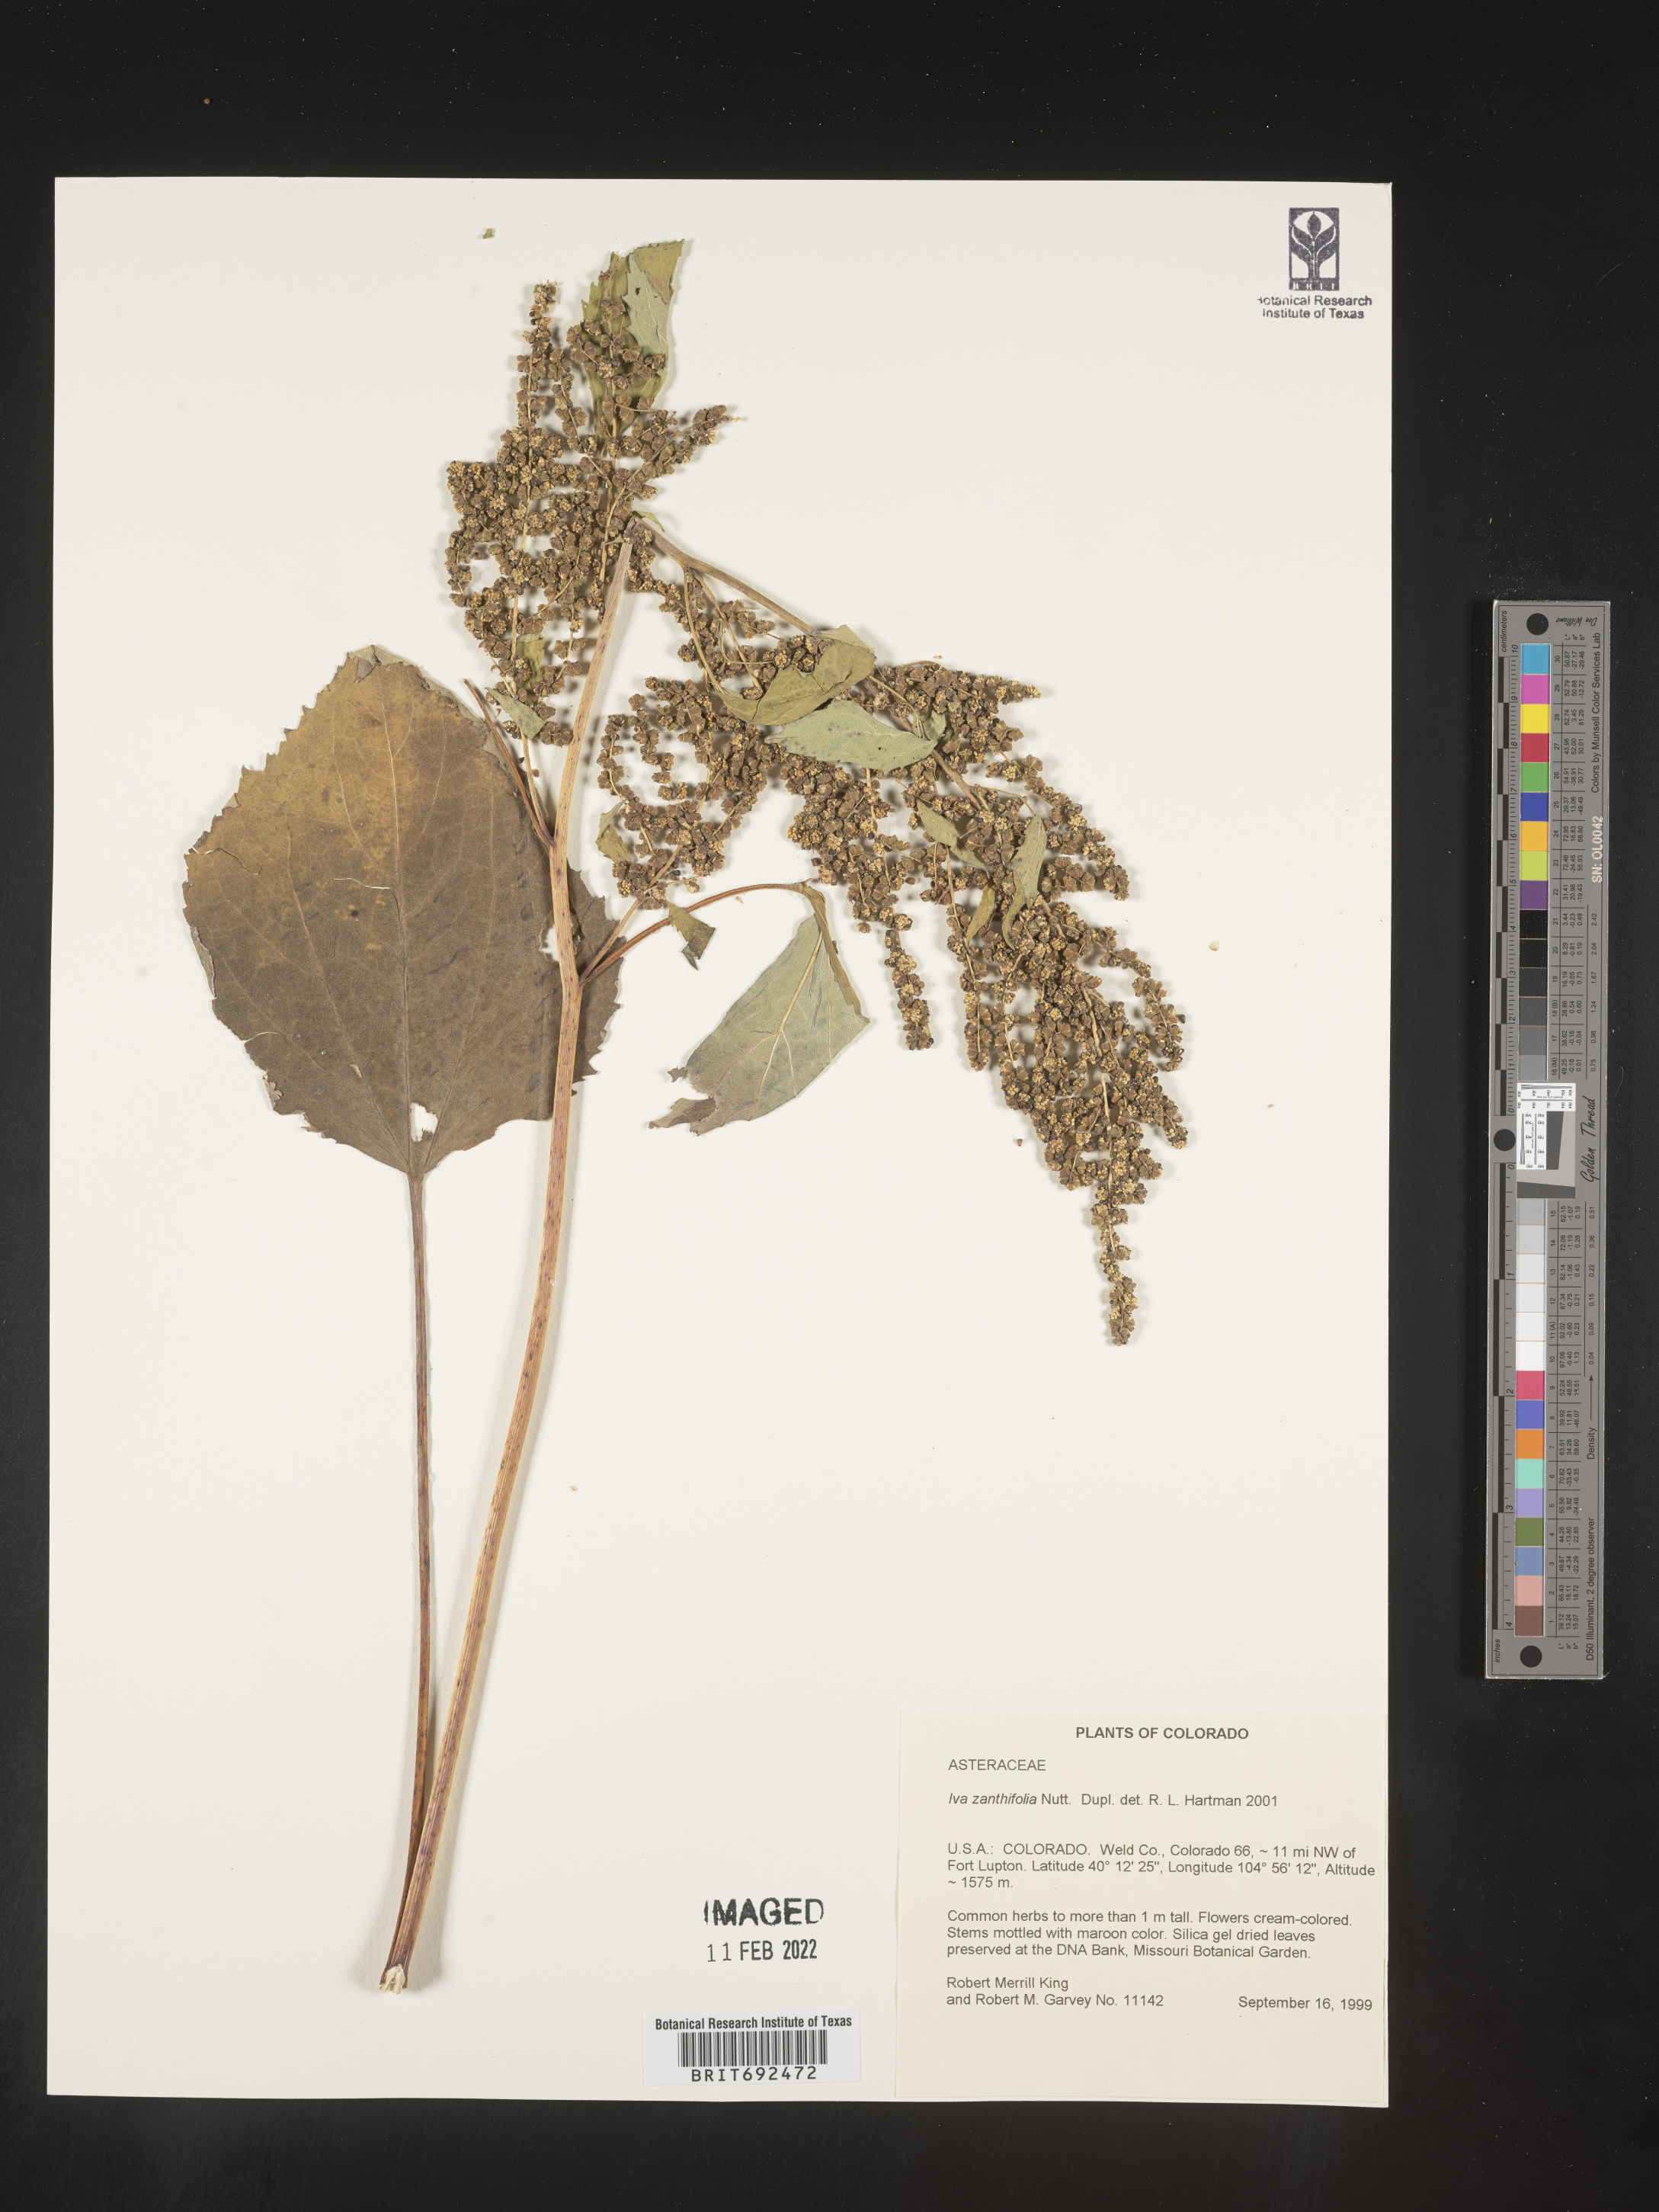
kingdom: Plantae
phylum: Tracheophyta
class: Magnoliopsida
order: Asterales
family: Asteraceae
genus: Cyclachaena
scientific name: Cyclachaena
